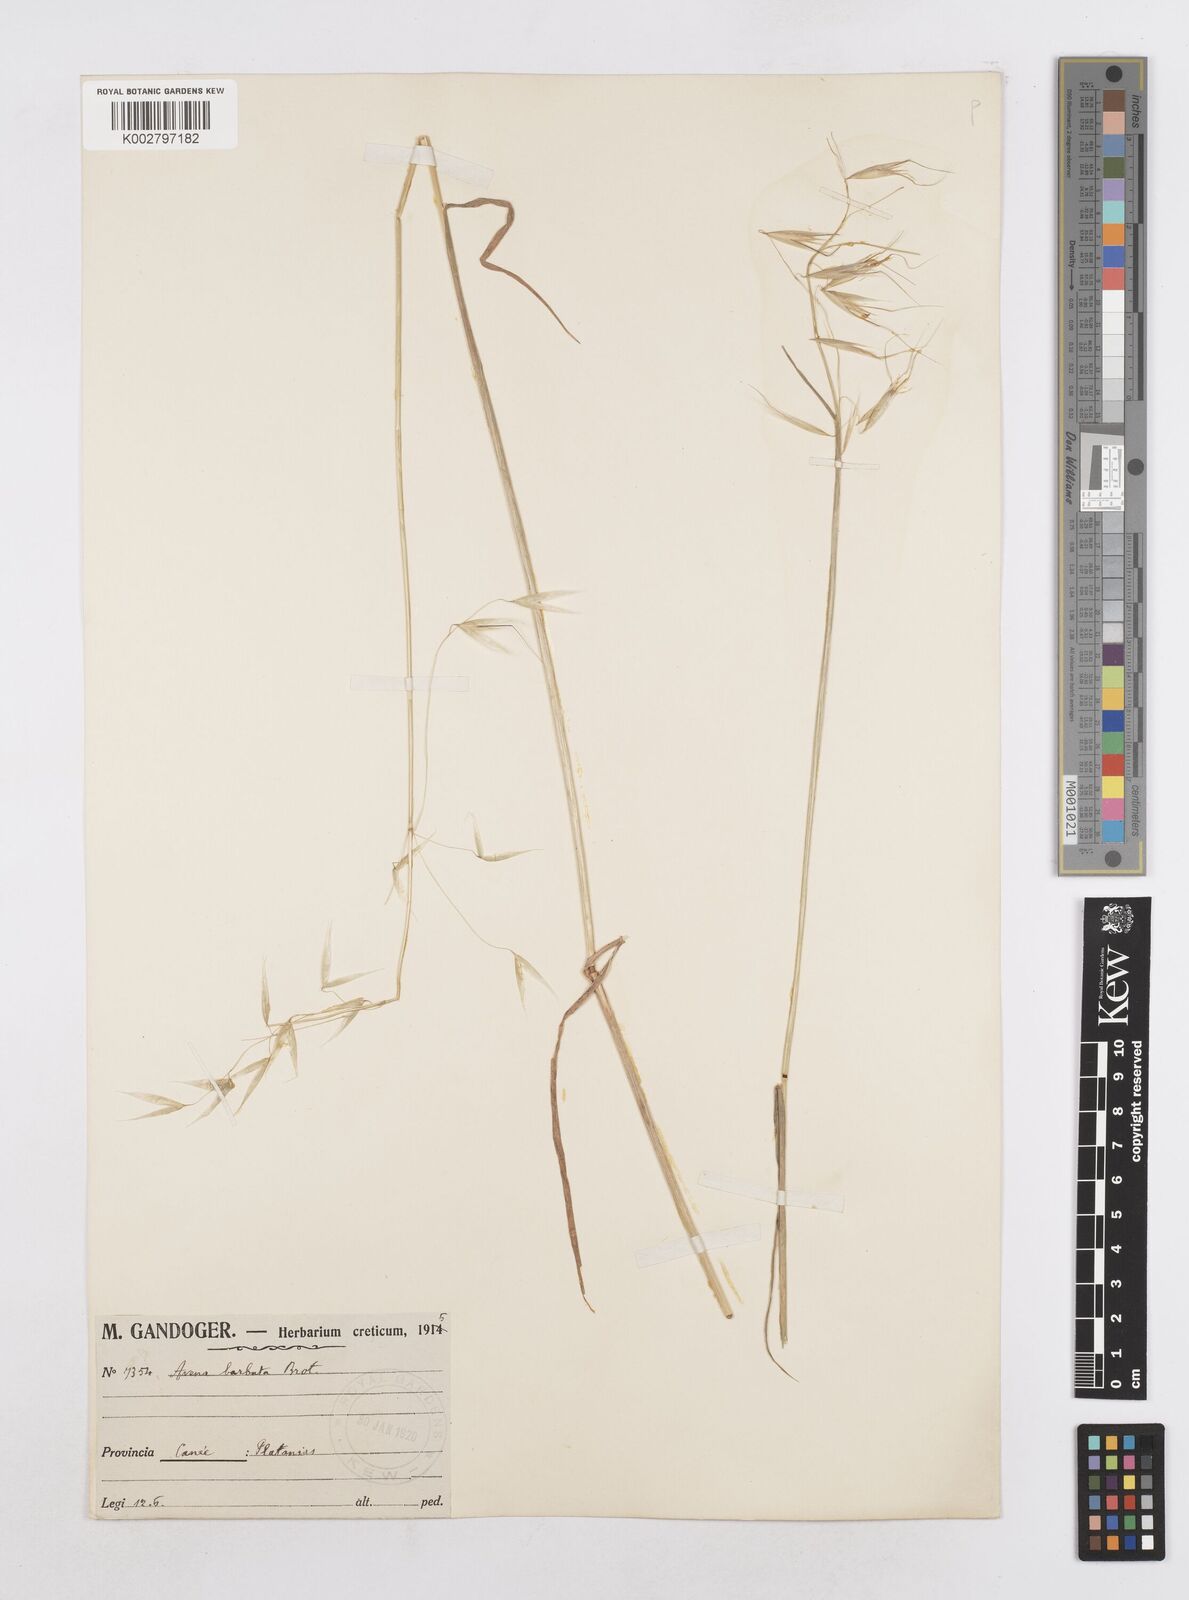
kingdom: Plantae
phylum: Tracheophyta
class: Liliopsida
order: Poales
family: Poaceae
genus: Avena
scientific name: Avena
